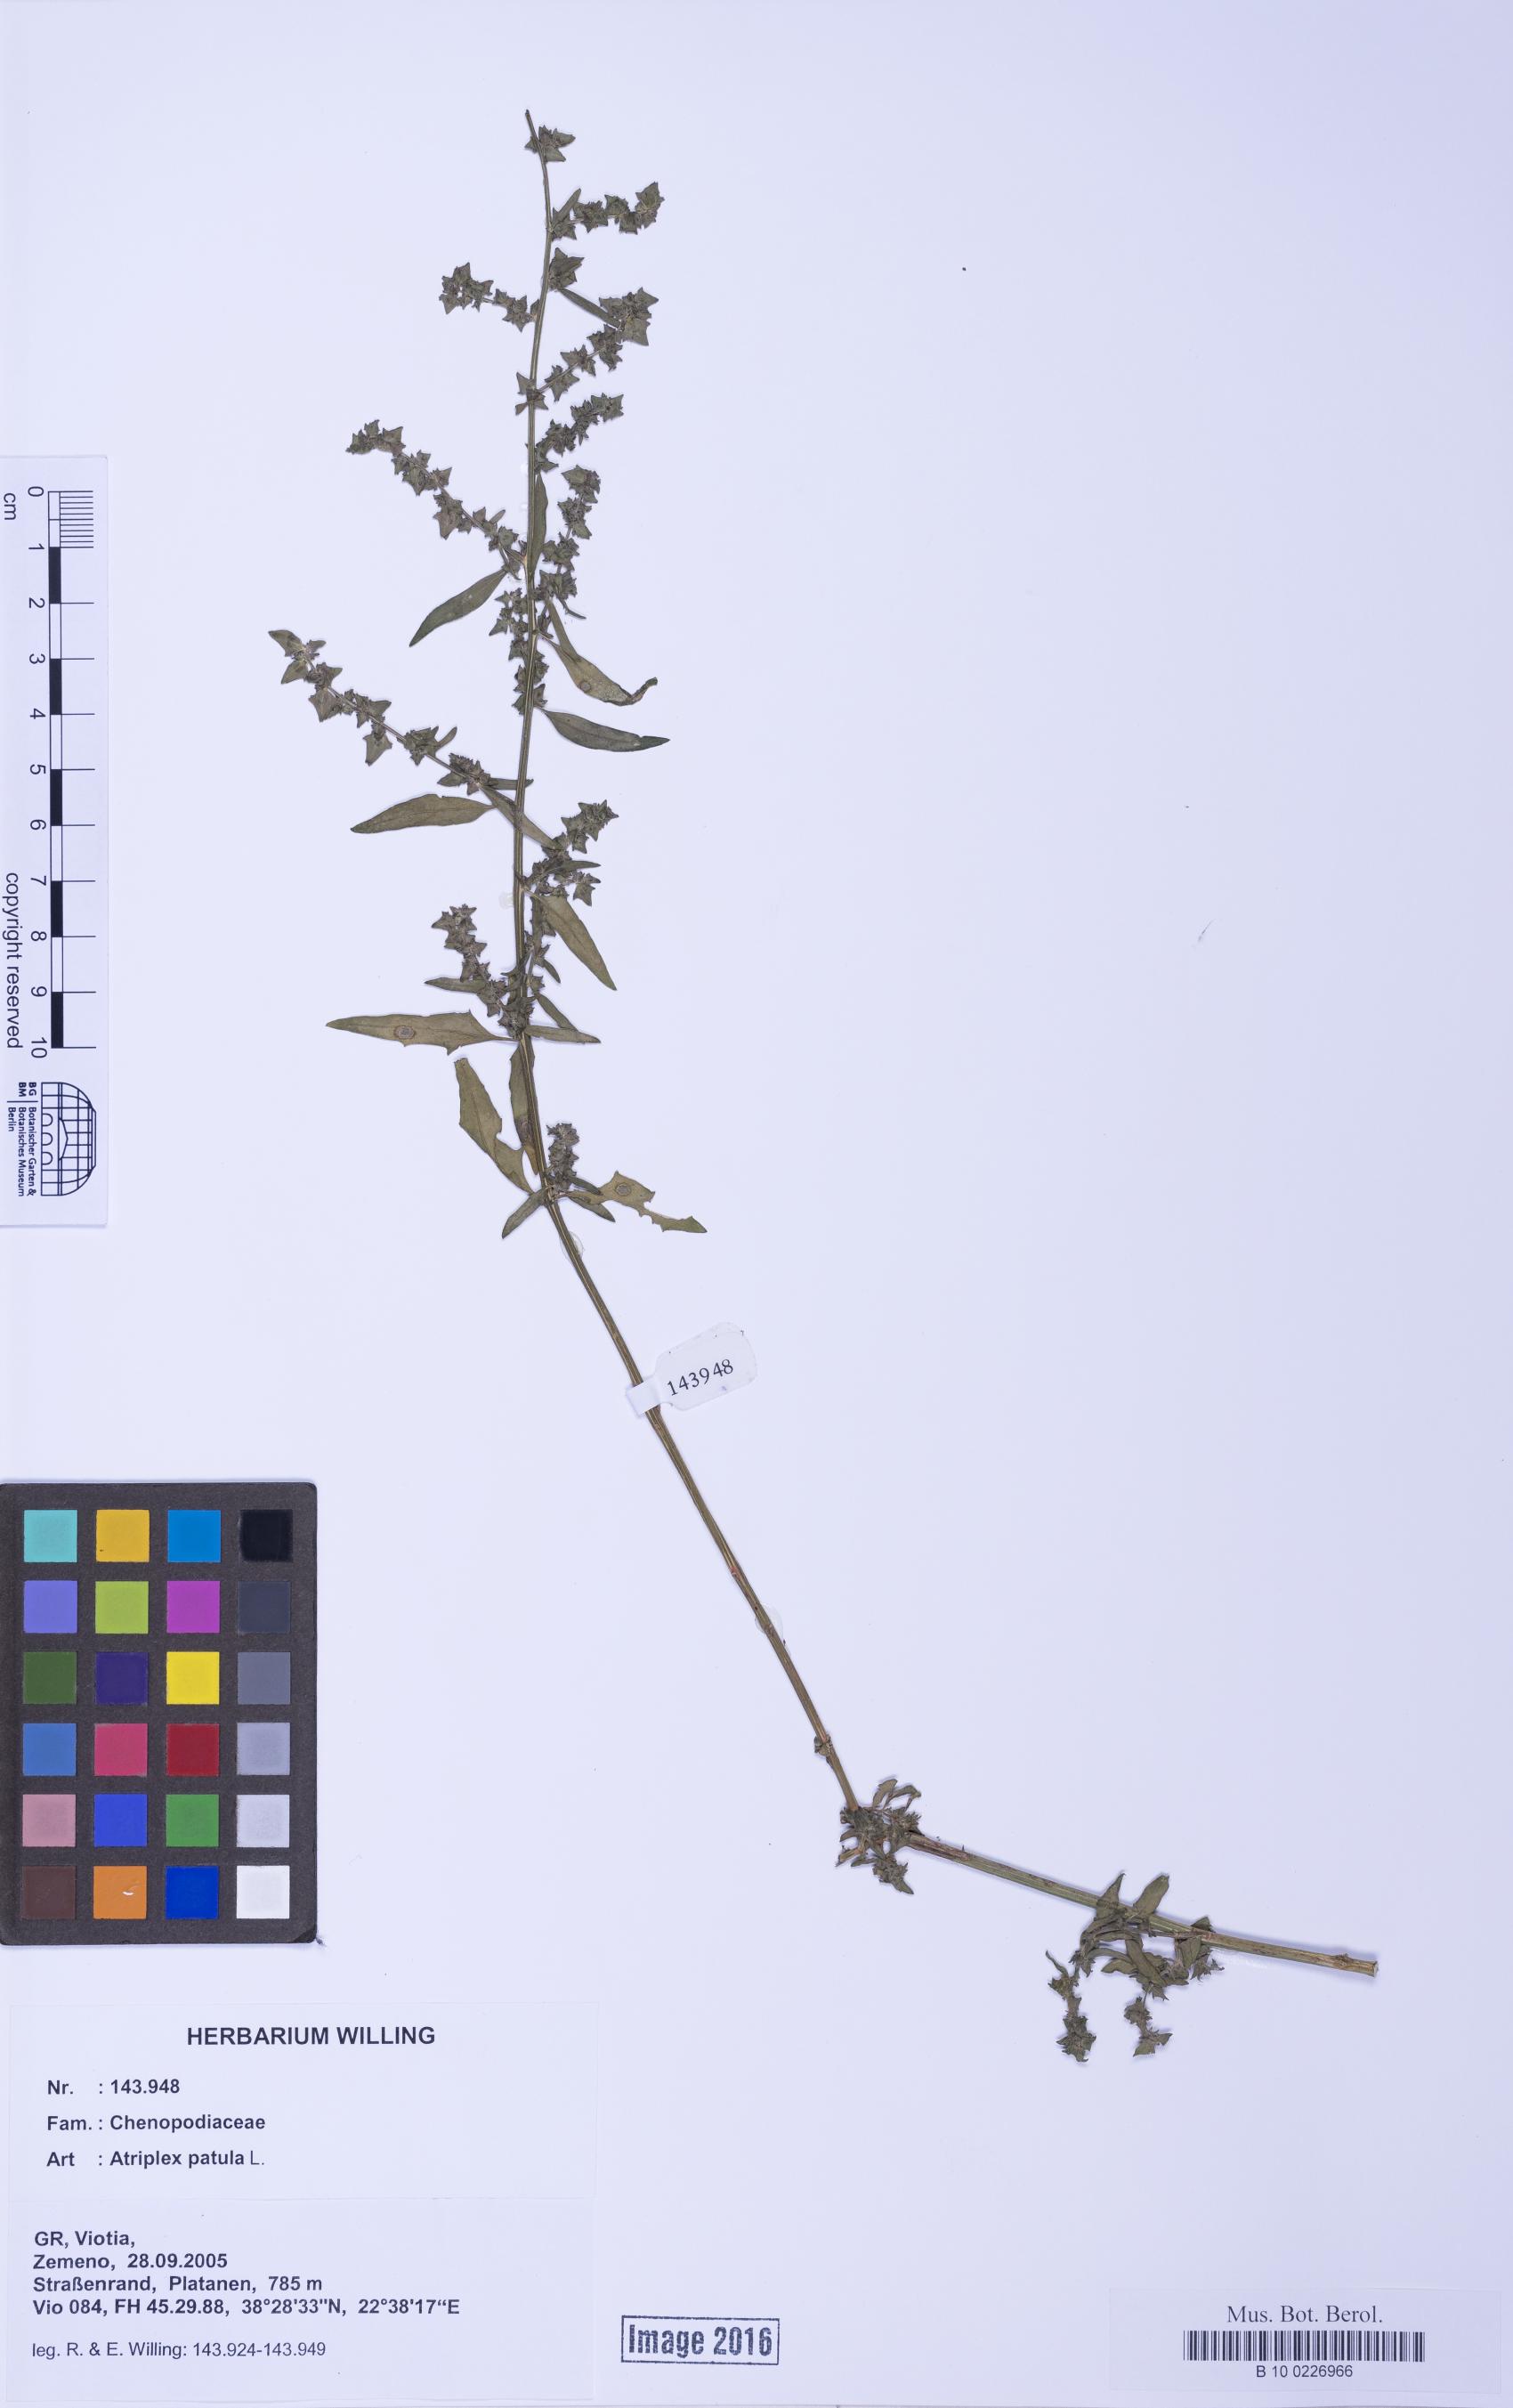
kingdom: Plantae
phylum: Tracheophyta
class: Magnoliopsida
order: Caryophyllales
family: Amaranthaceae
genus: Atriplex
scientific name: Atriplex patula
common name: Common orache
